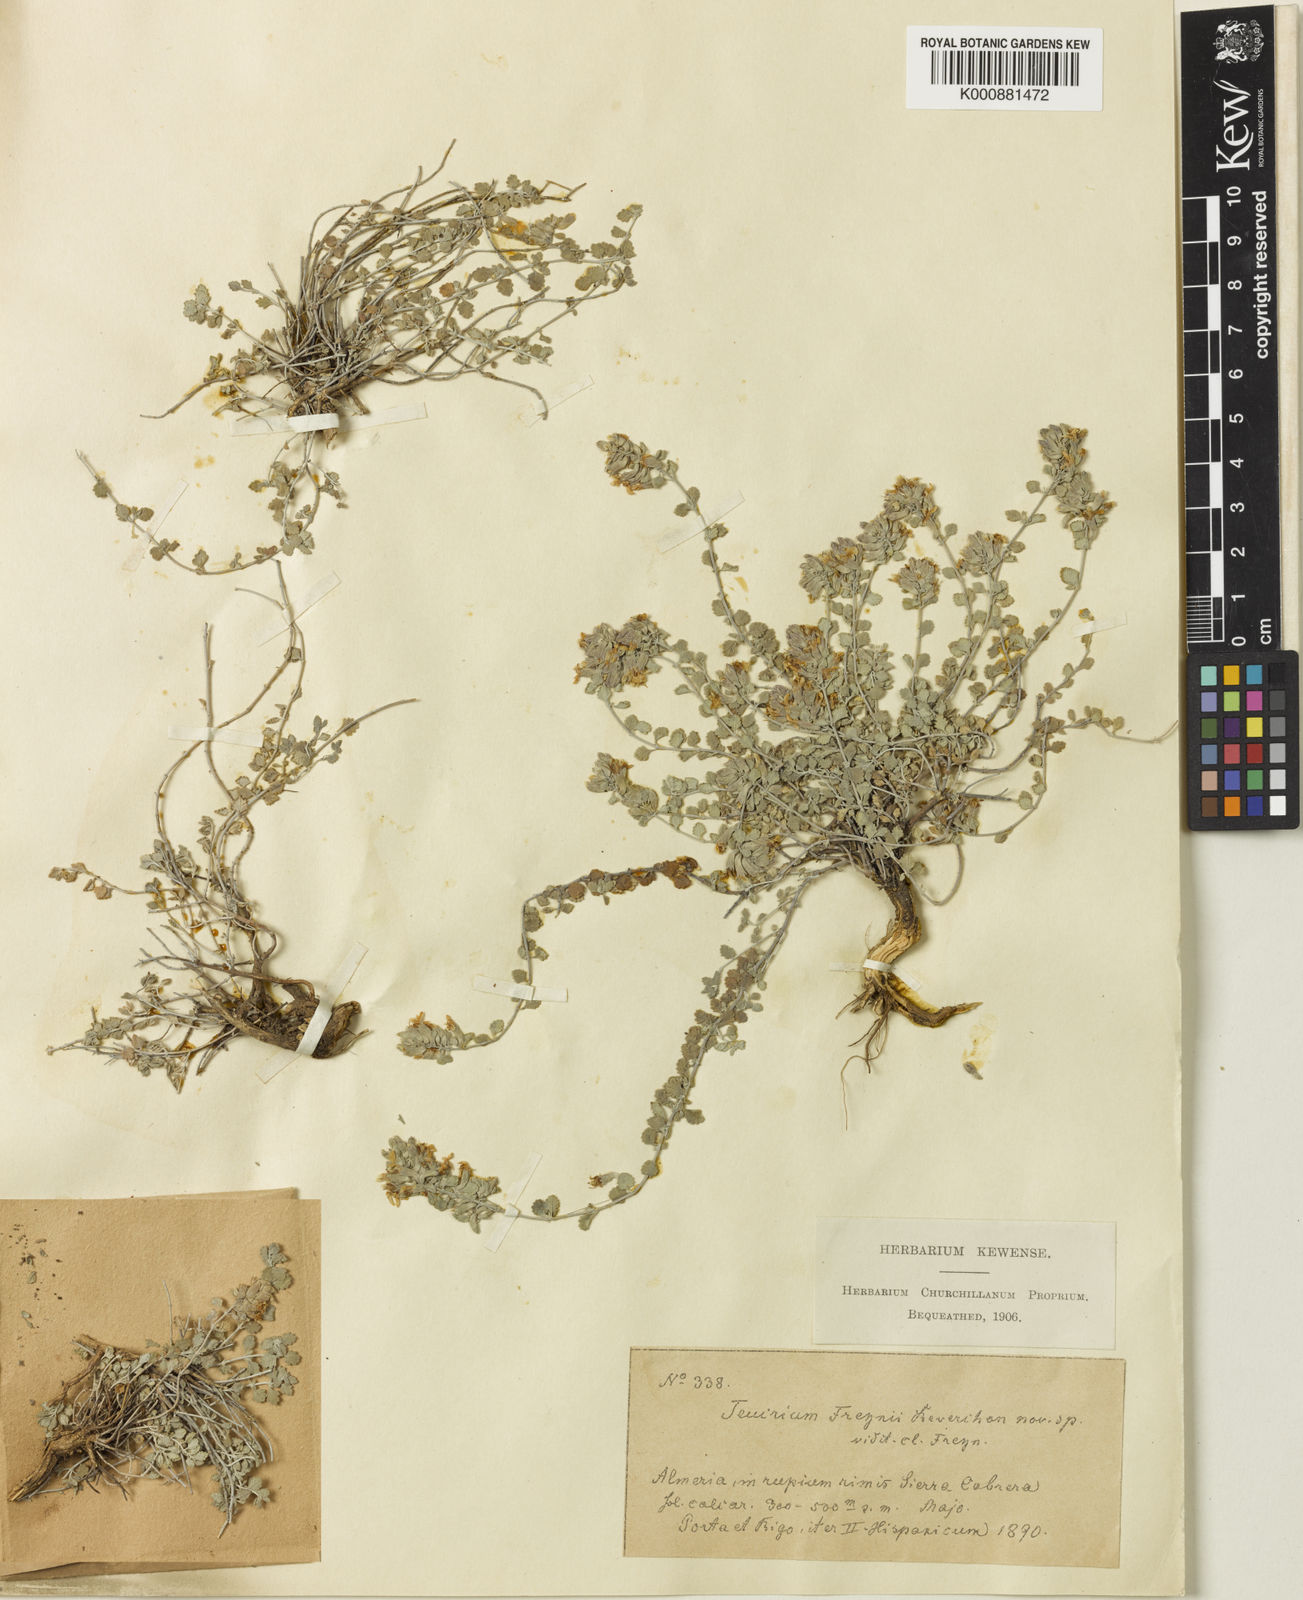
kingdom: Plantae
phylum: Tracheophyta
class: Magnoliopsida
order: Lamiales
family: Lamiaceae
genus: Teucrium
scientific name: Teucrium freynii
